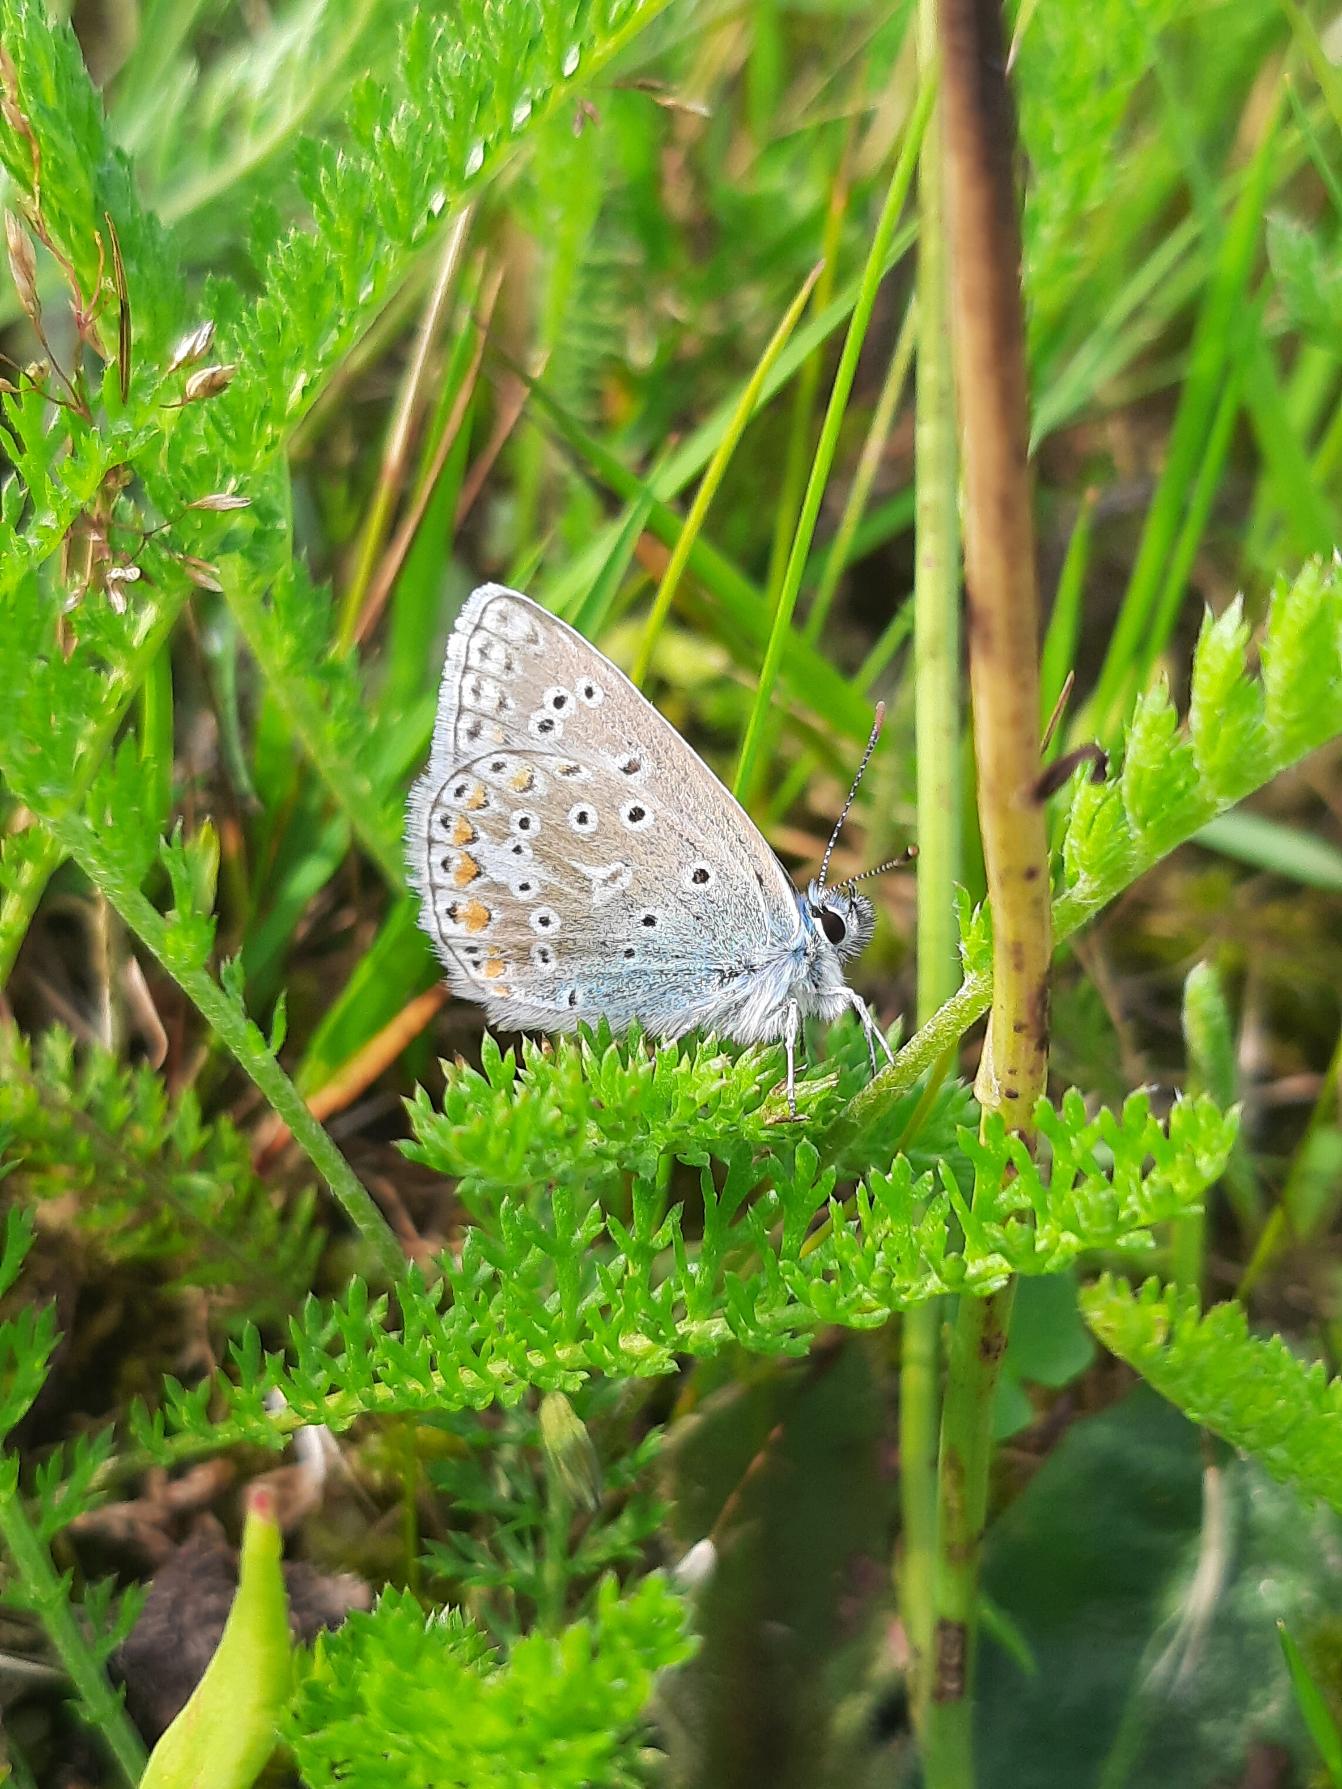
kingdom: Animalia
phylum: Arthropoda
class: Insecta
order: Lepidoptera
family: Lycaenidae
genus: Polyommatus
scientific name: Polyommatus icarus
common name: Almindelig blåfugl
